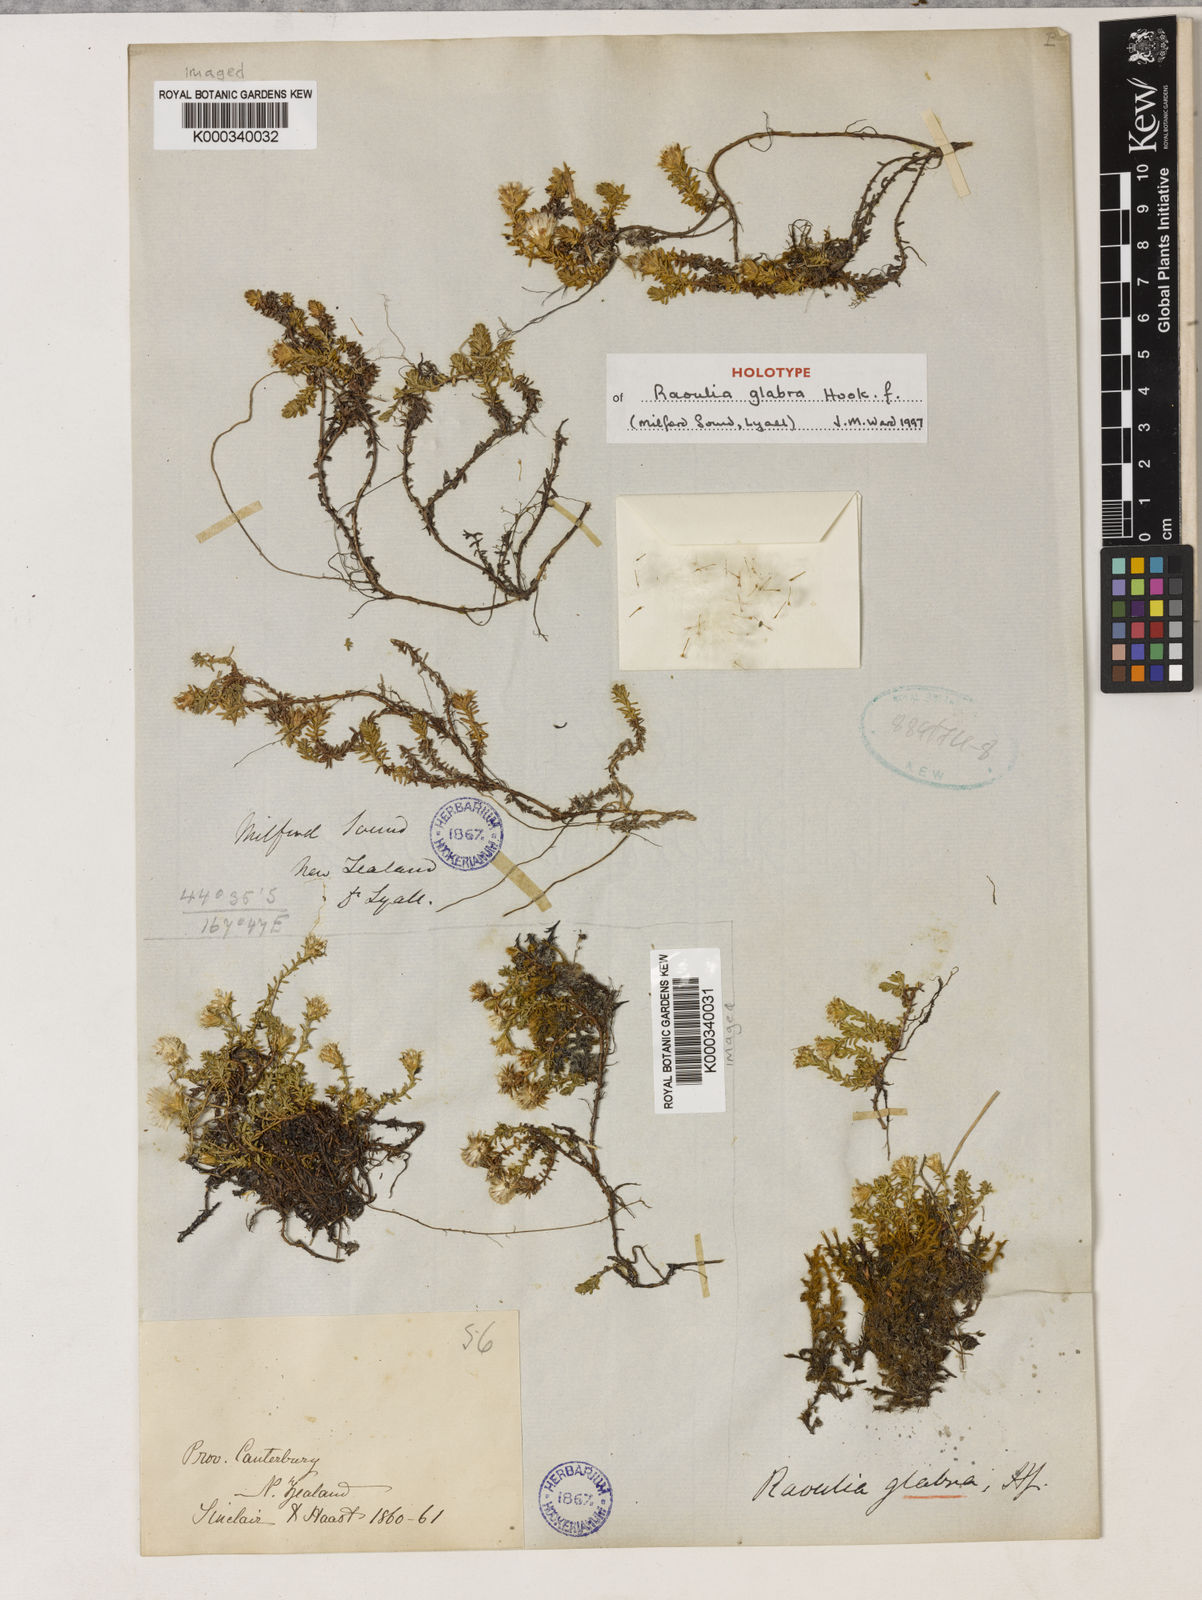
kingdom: Plantae
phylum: Tracheophyta
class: Magnoliopsida
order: Asterales
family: Asteraceae
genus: Raoulia
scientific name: Raoulia glabra
